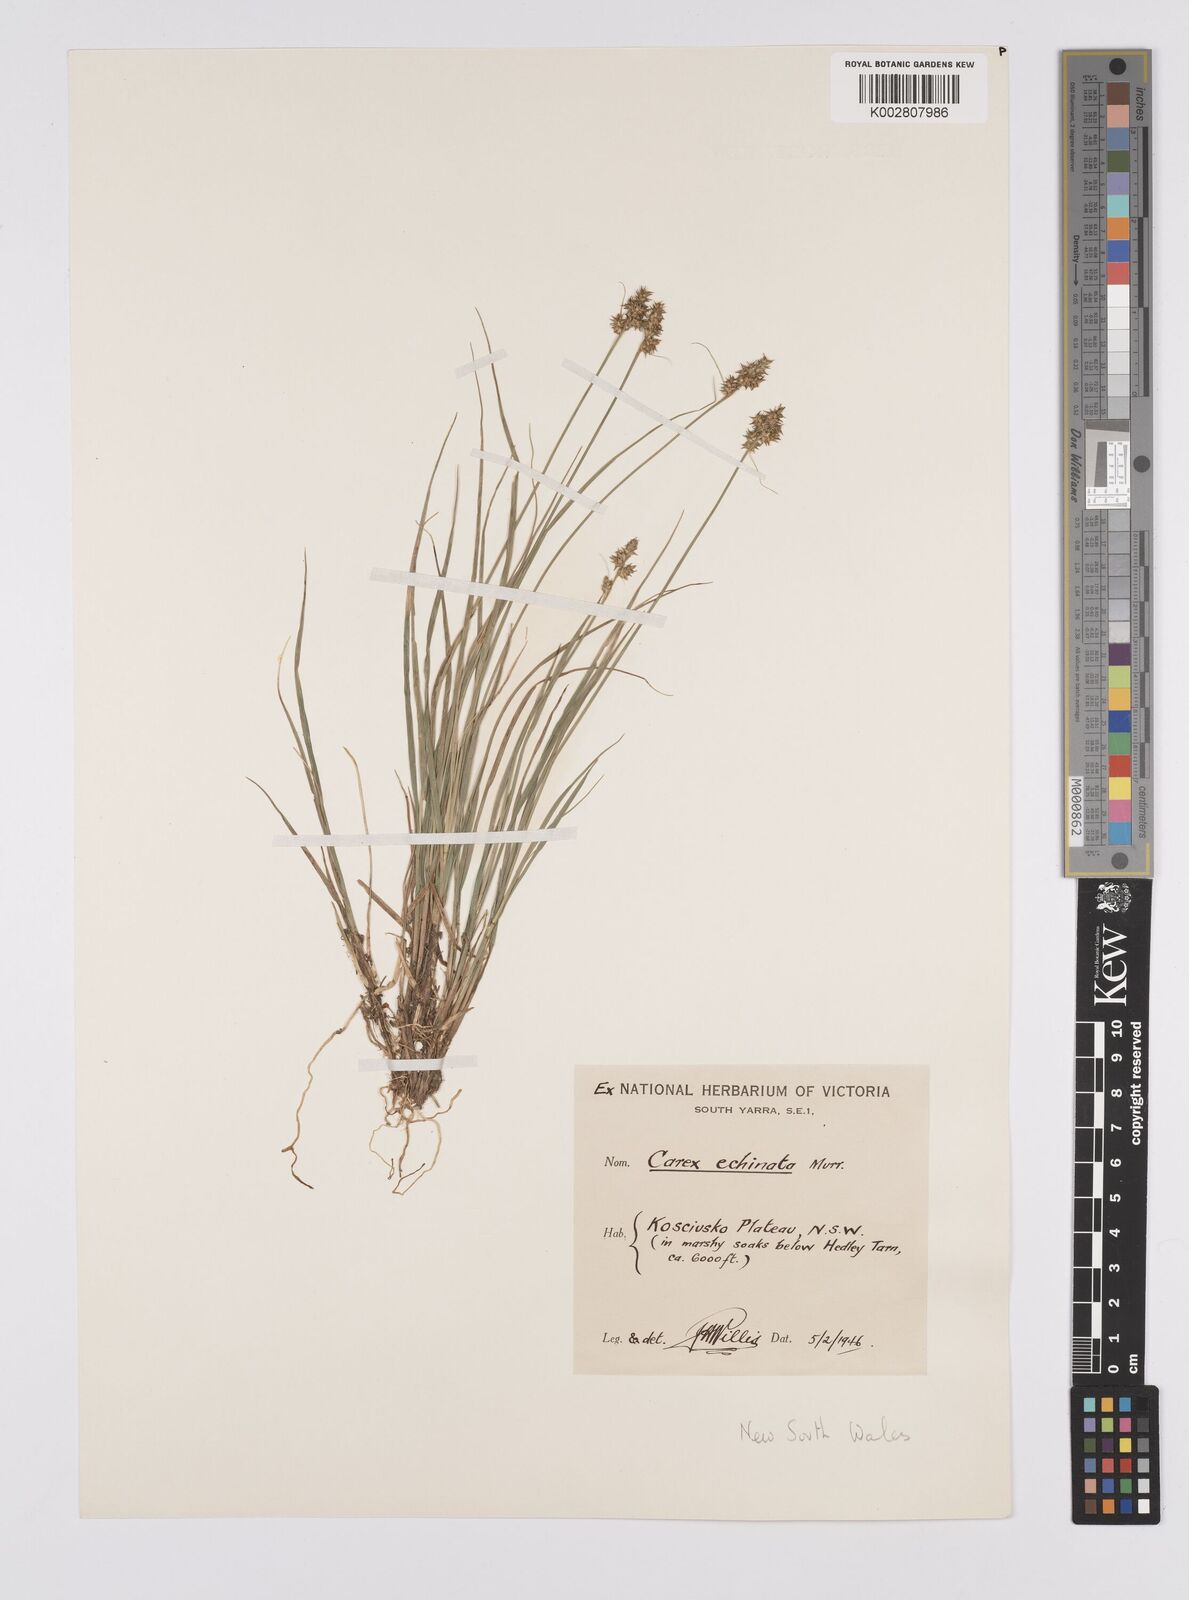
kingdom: Plantae
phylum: Tracheophyta
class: Liliopsida
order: Poales
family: Cyperaceae
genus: Carex
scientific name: Carex echinata
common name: Star sedge
